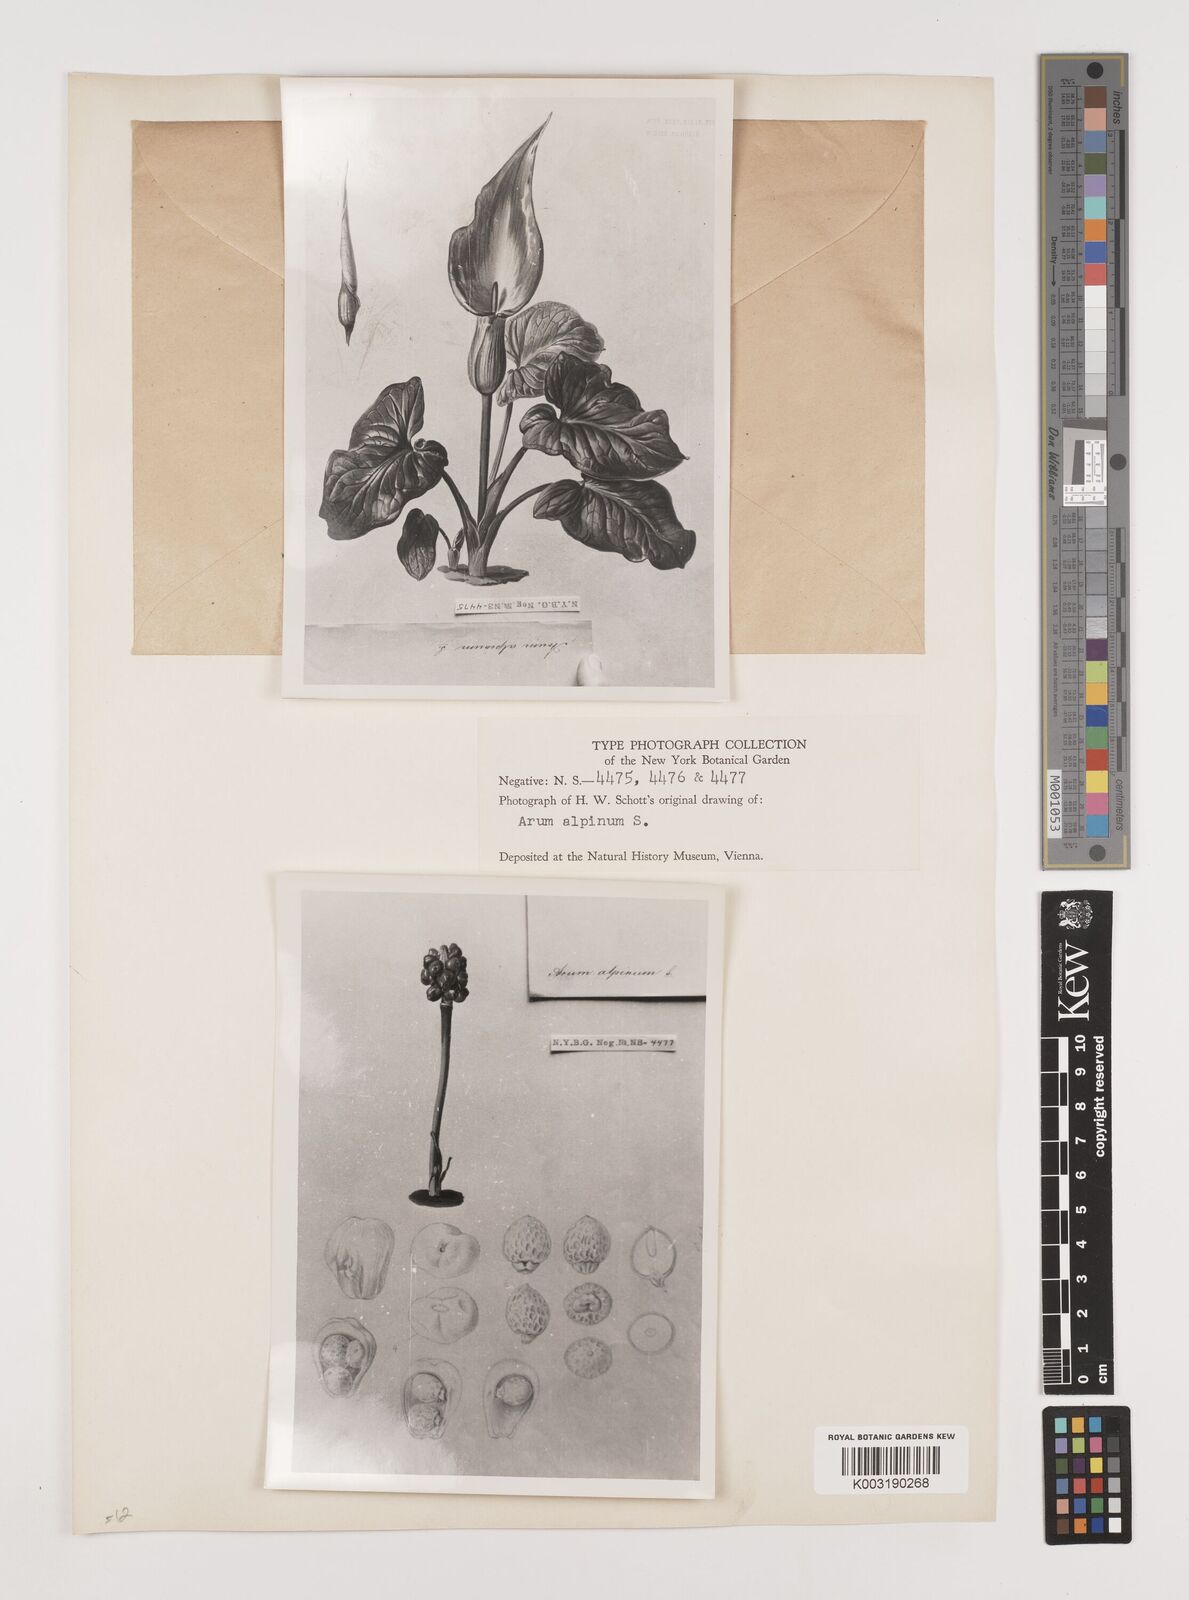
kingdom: Plantae
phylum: Tracheophyta
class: Liliopsida
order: Alismatales
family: Araceae
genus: Arum
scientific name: Arum cylindraceum
